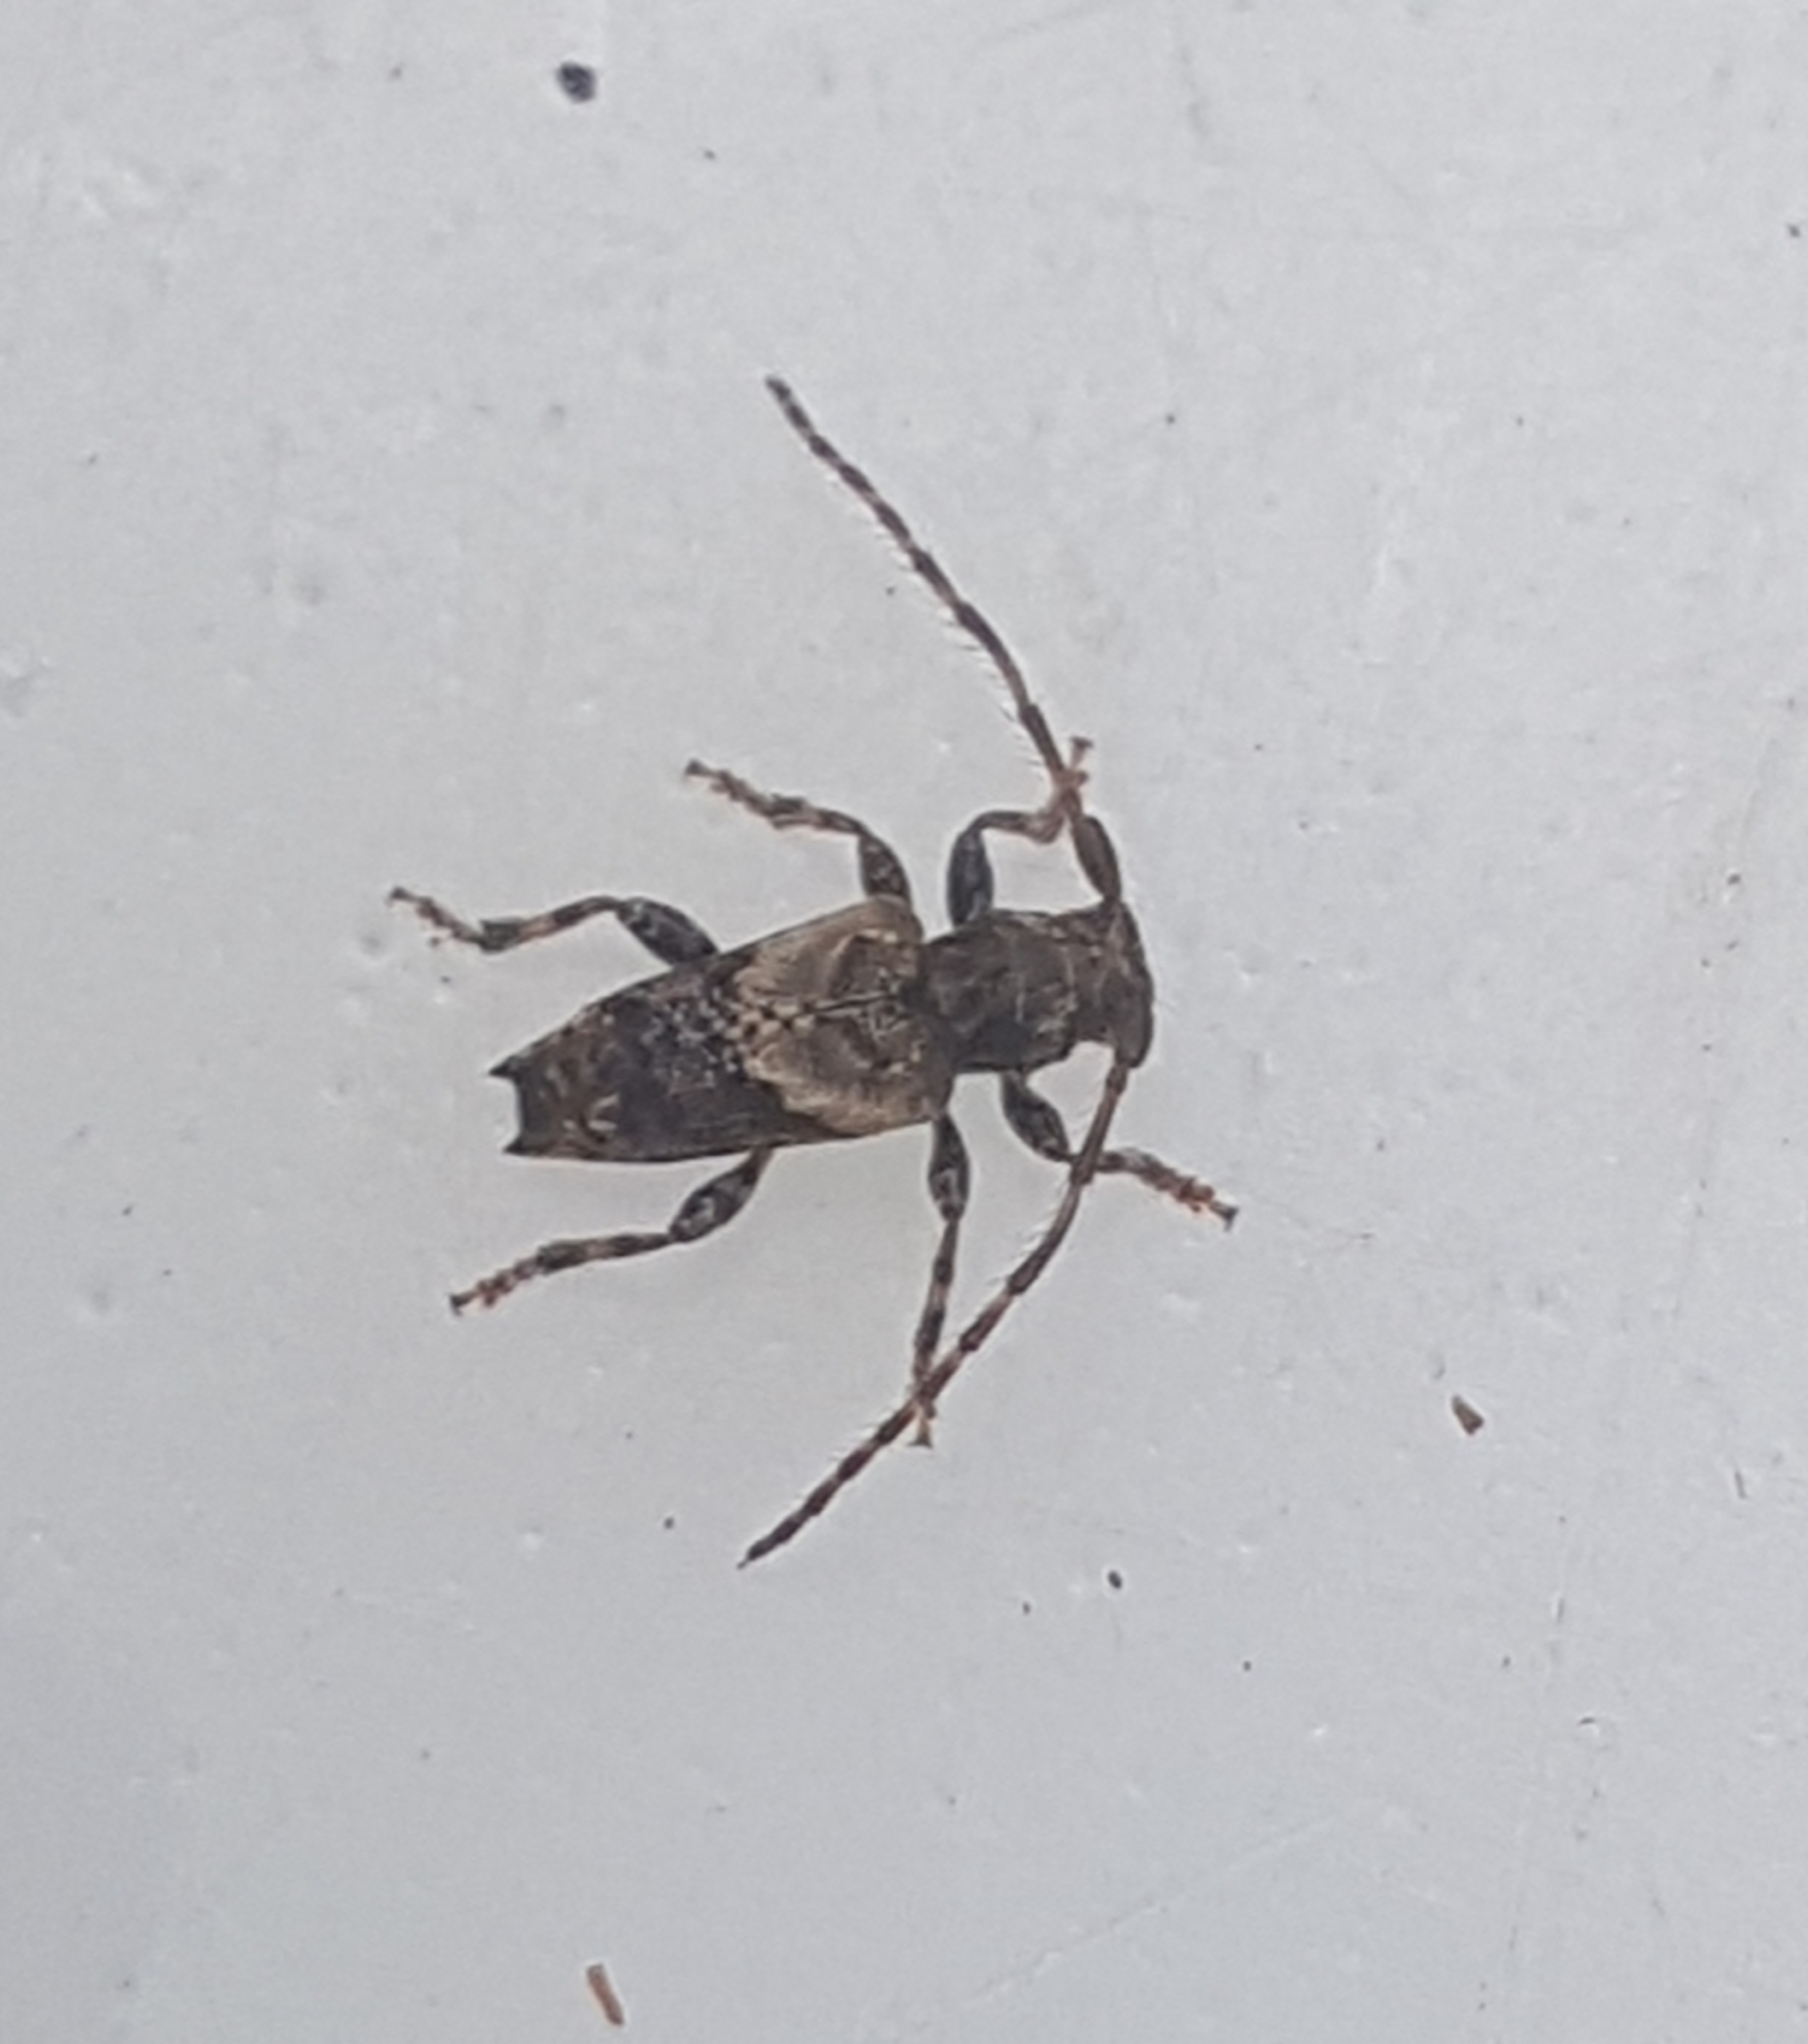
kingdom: Animalia
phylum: Arthropoda
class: Insecta
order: Coleoptera
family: Cerambycidae
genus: Pogonocherus
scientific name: Pogonocherus hispidus
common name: Løvgråbuk
